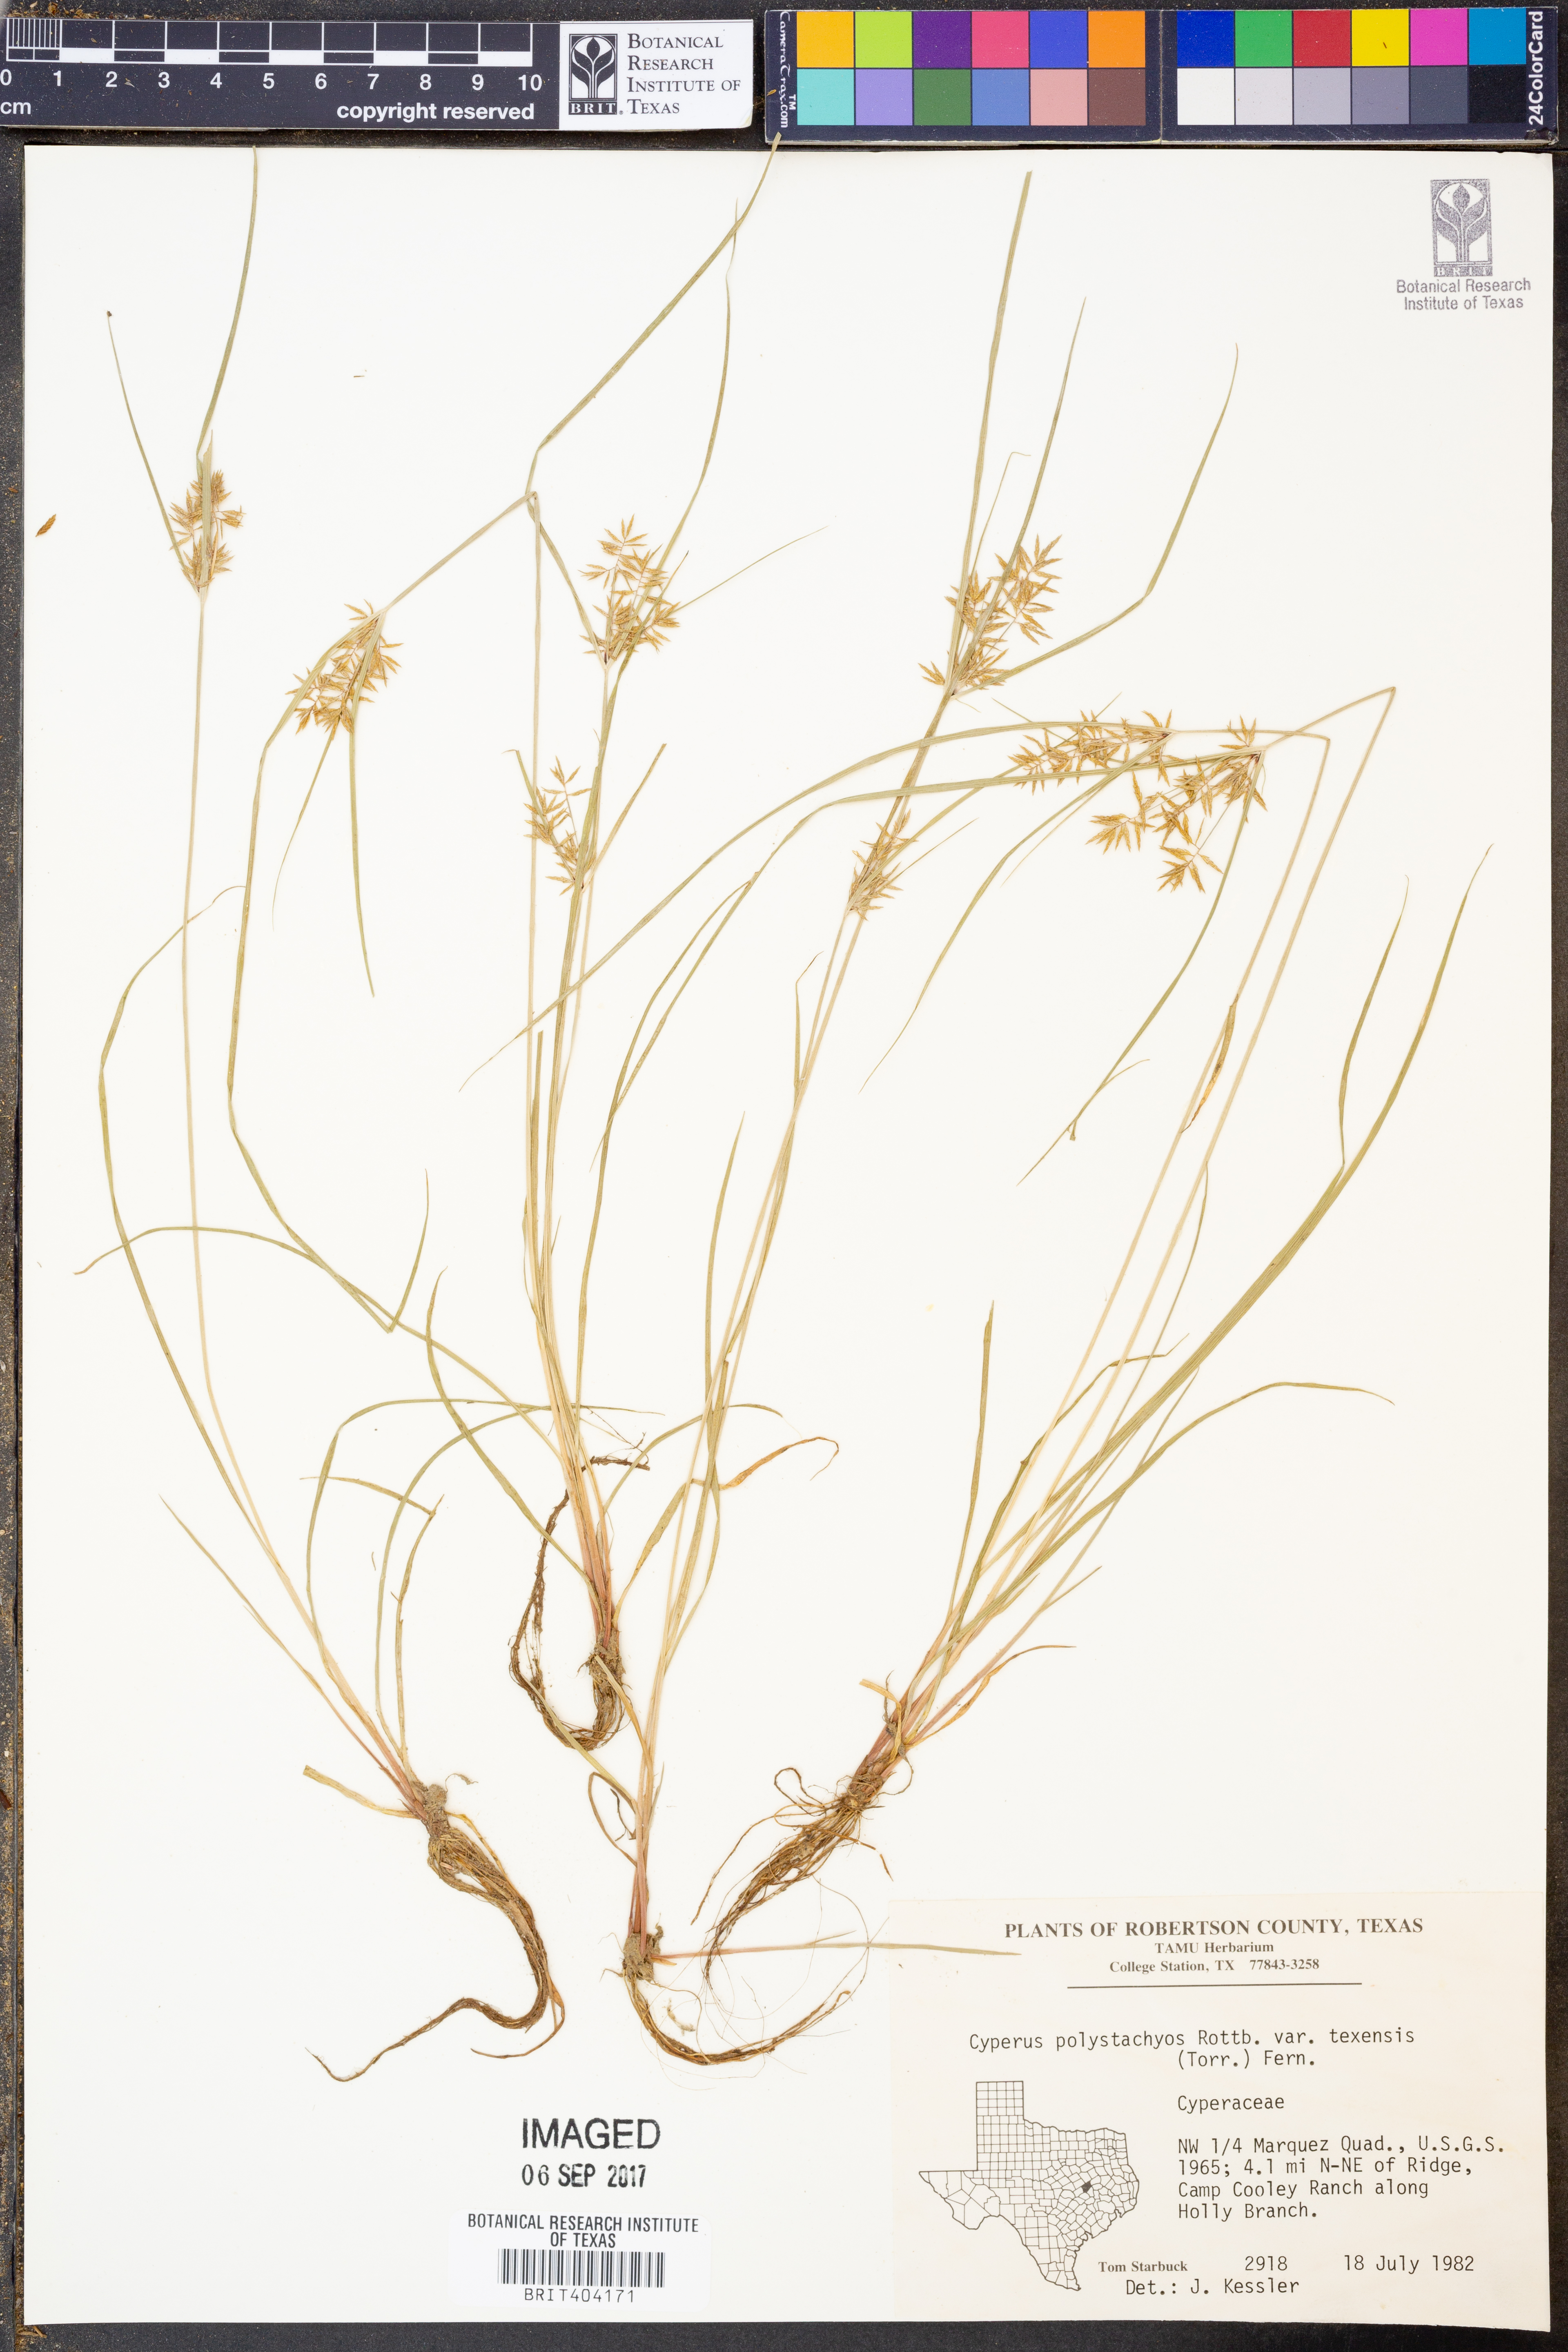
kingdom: Plantae
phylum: Tracheophyta
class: Liliopsida
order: Poales
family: Cyperaceae
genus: Cyperus
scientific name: Cyperus polystachyos
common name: Bunchy flat sedge
